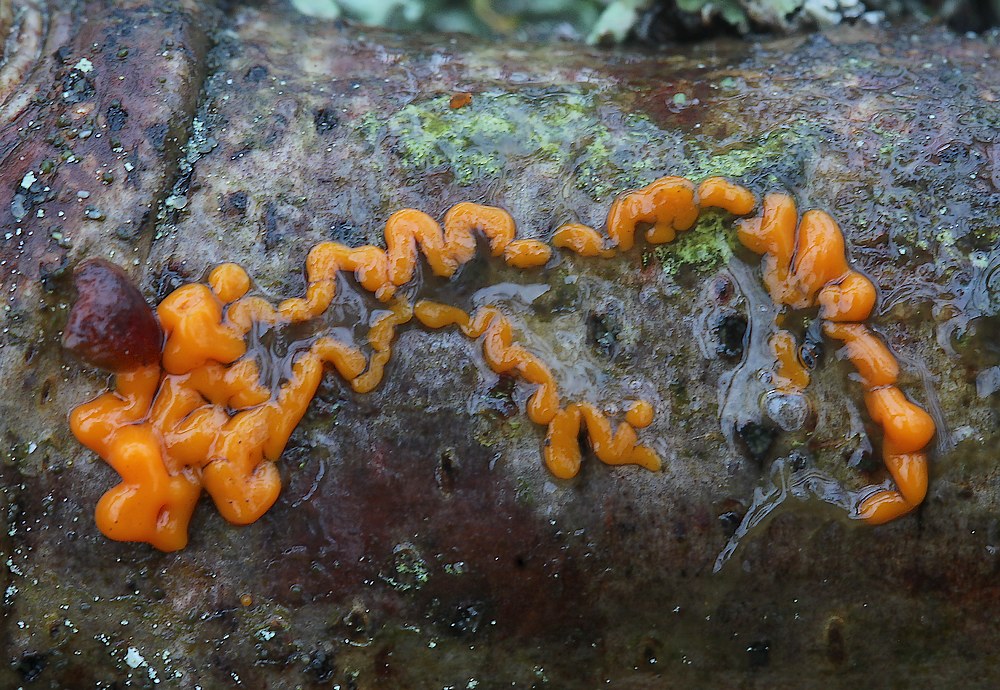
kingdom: Protozoa
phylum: Mycetozoa
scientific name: Mycetozoa
